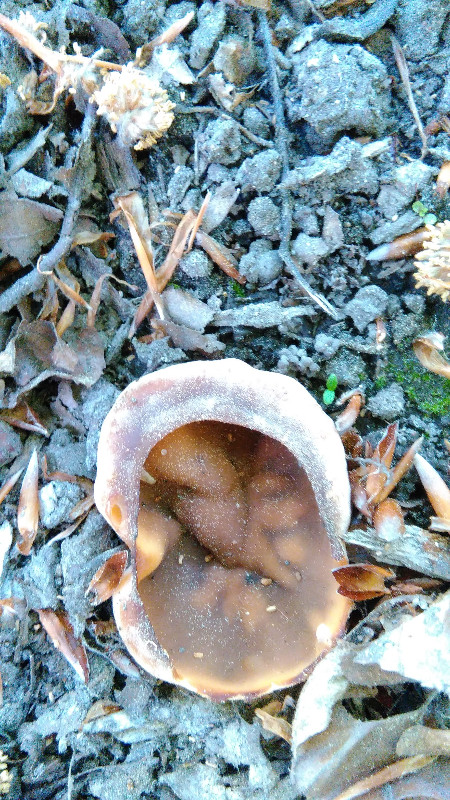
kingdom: Fungi
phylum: Ascomycota
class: Pezizomycetes
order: Pezizales
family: Morchellaceae
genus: Disciotis
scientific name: Disciotis venosa
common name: klor-bægermorkel
